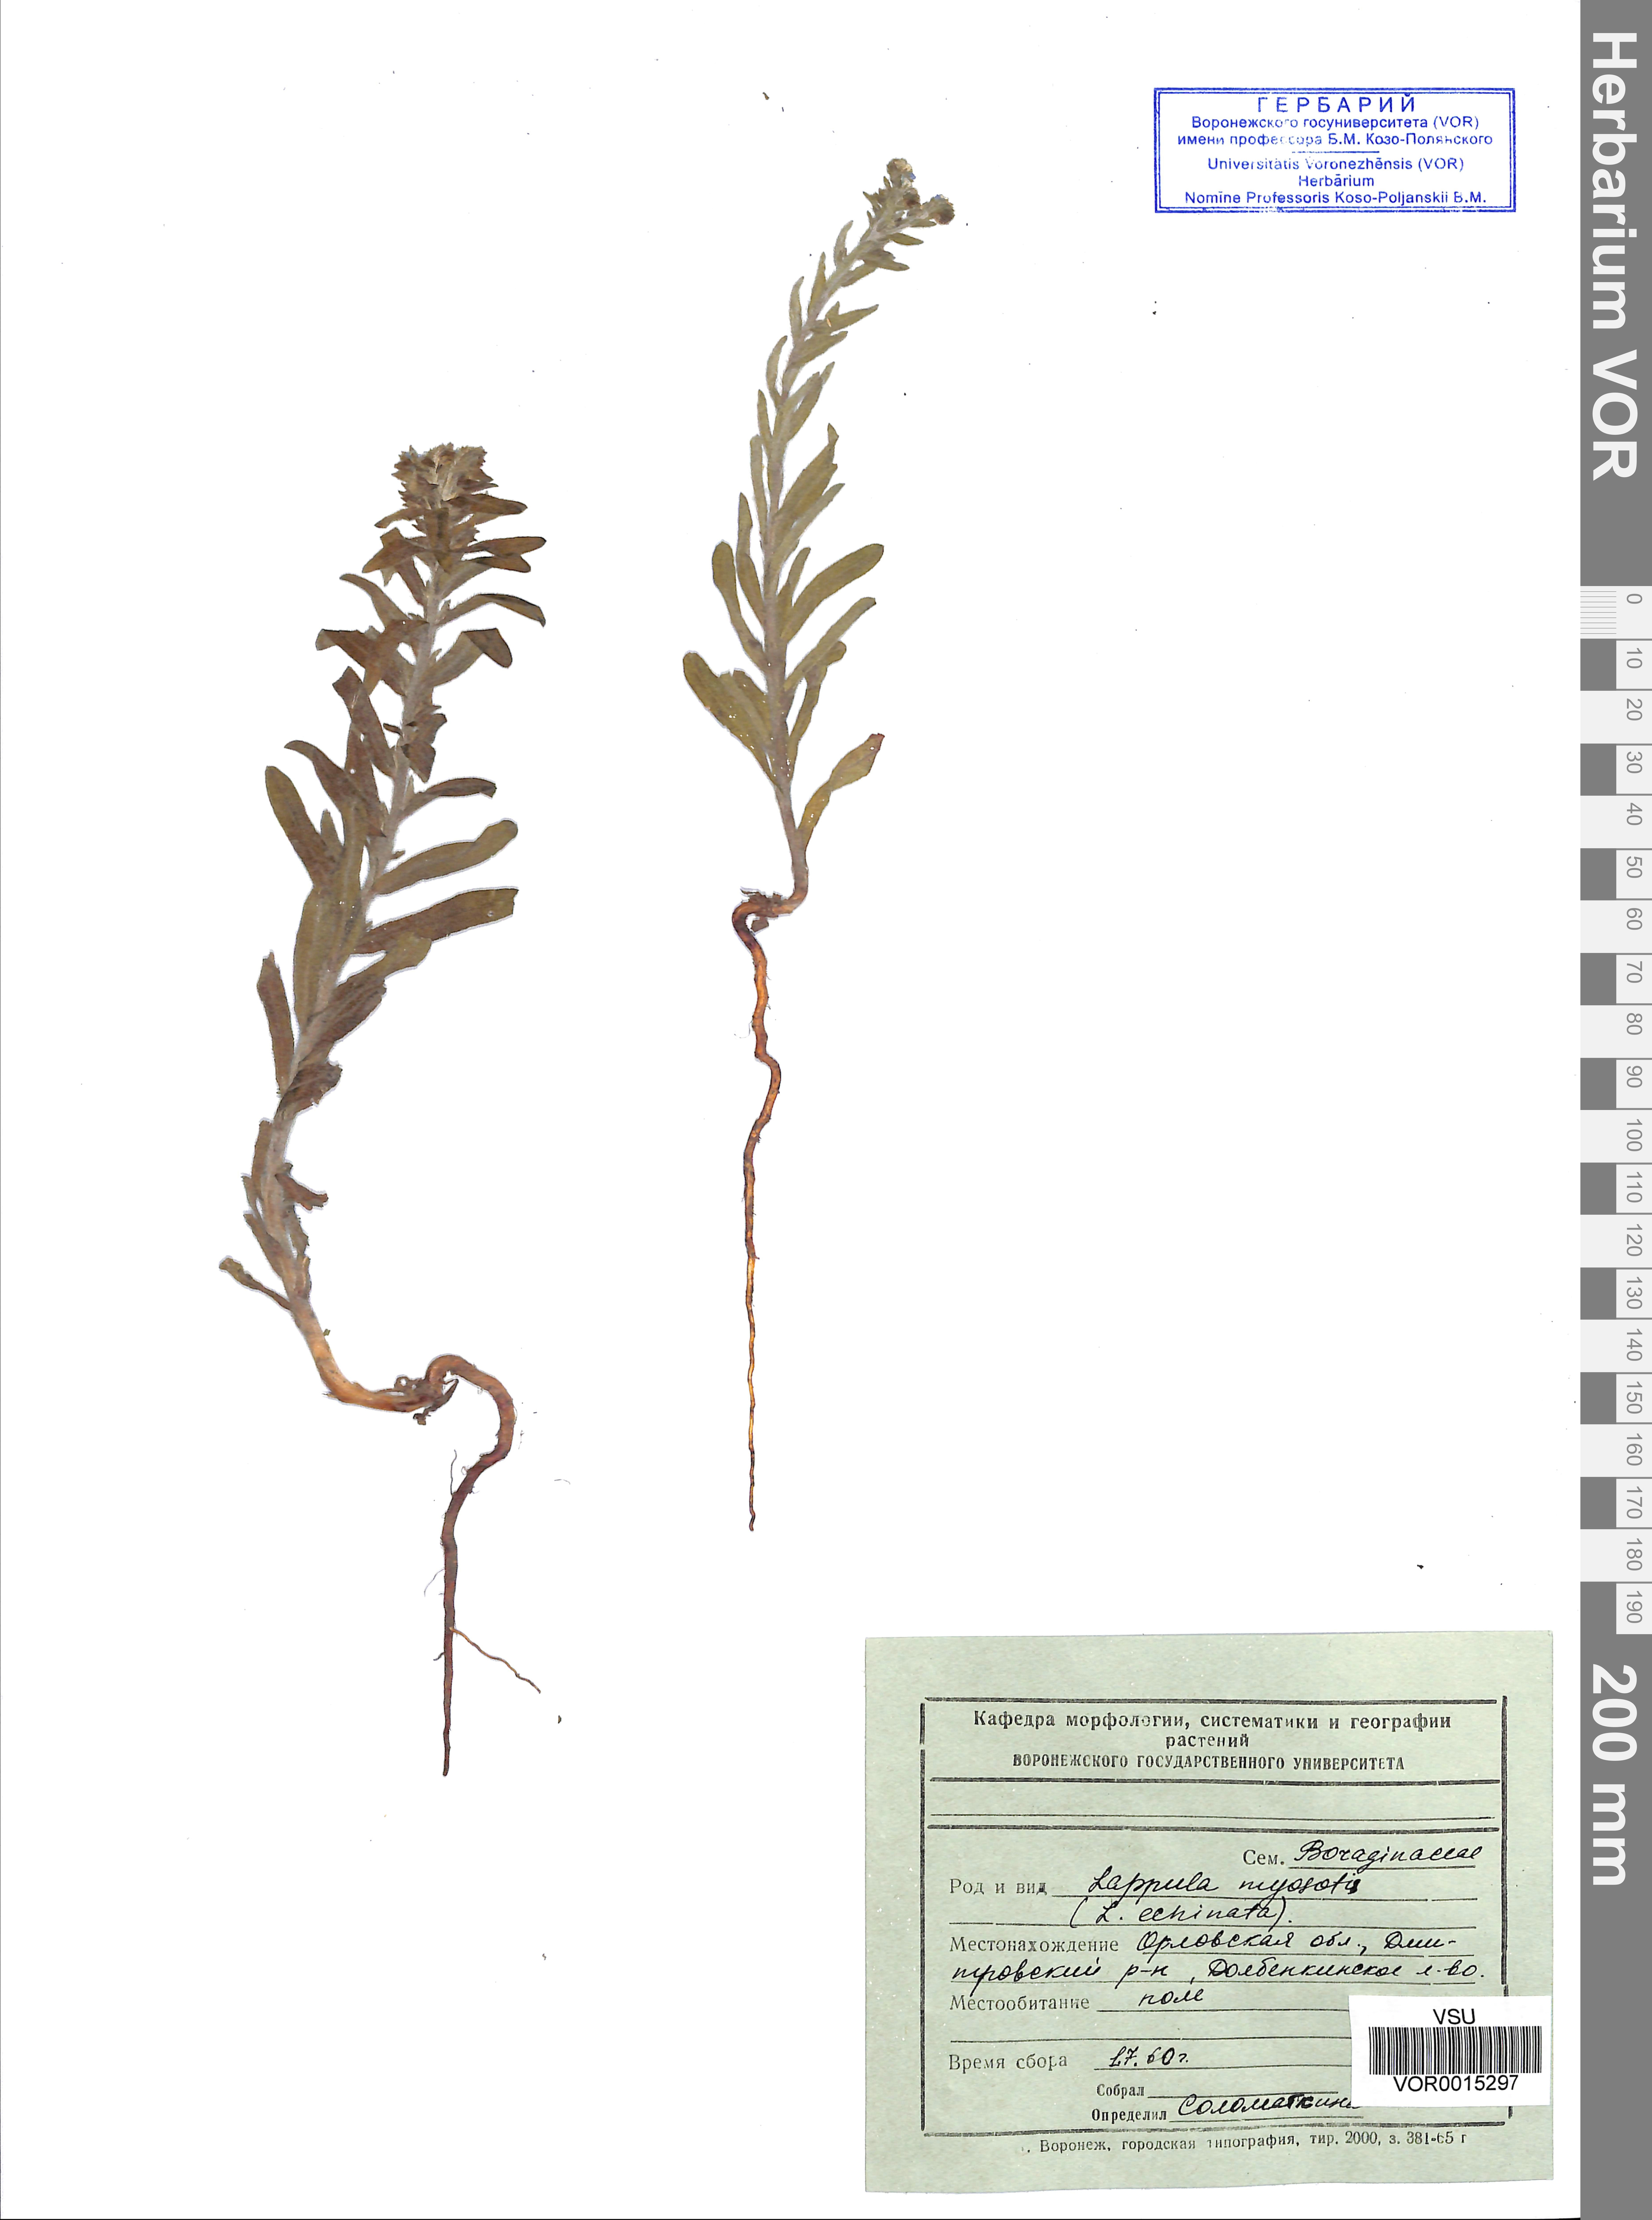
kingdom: Plantae
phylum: Tracheophyta
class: Magnoliopsida
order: Boraginales
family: Boraginaceae
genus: Lappula
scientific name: Lappula squarrosa
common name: European stickseed
